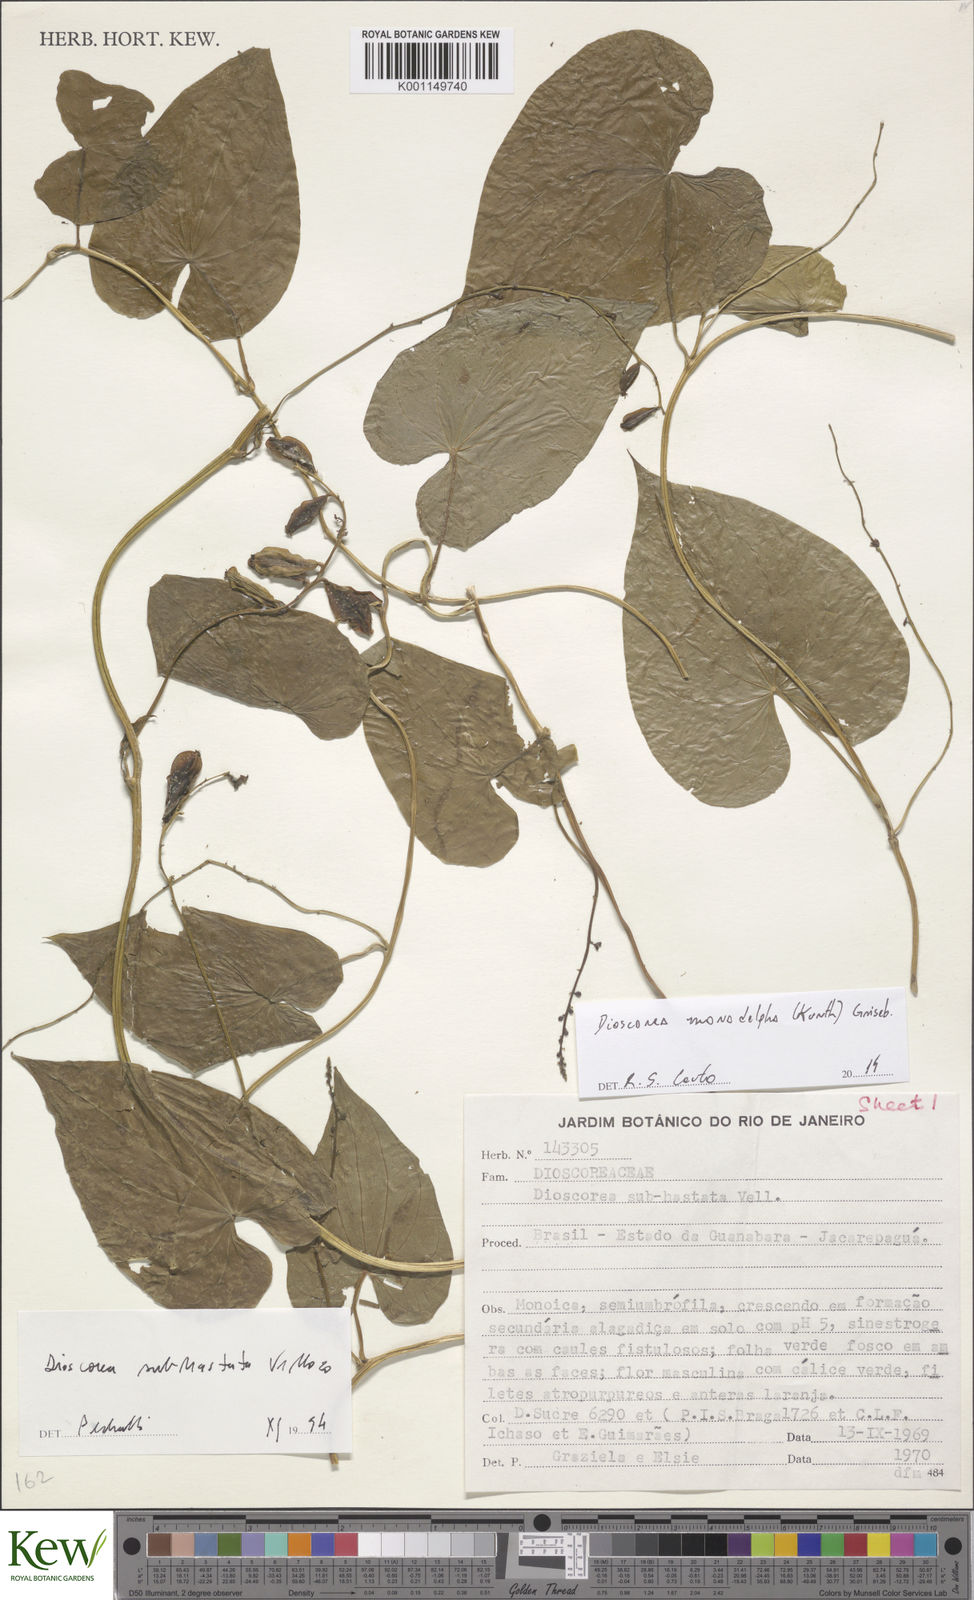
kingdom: Plantae
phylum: Tracheophyta
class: Liliopsida
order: Dioscoreales
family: Dioscoreaceae
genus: Dioscorea
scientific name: Dioscorea monadelpha
